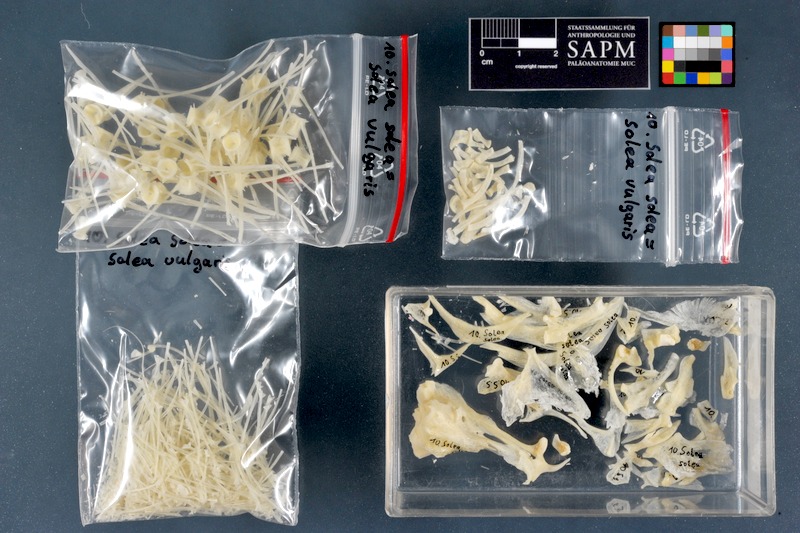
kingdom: Animalia
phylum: Chordata
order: Pleuronectiformes
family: Soleidae
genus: Solea
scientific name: Solea solea
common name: Sole
